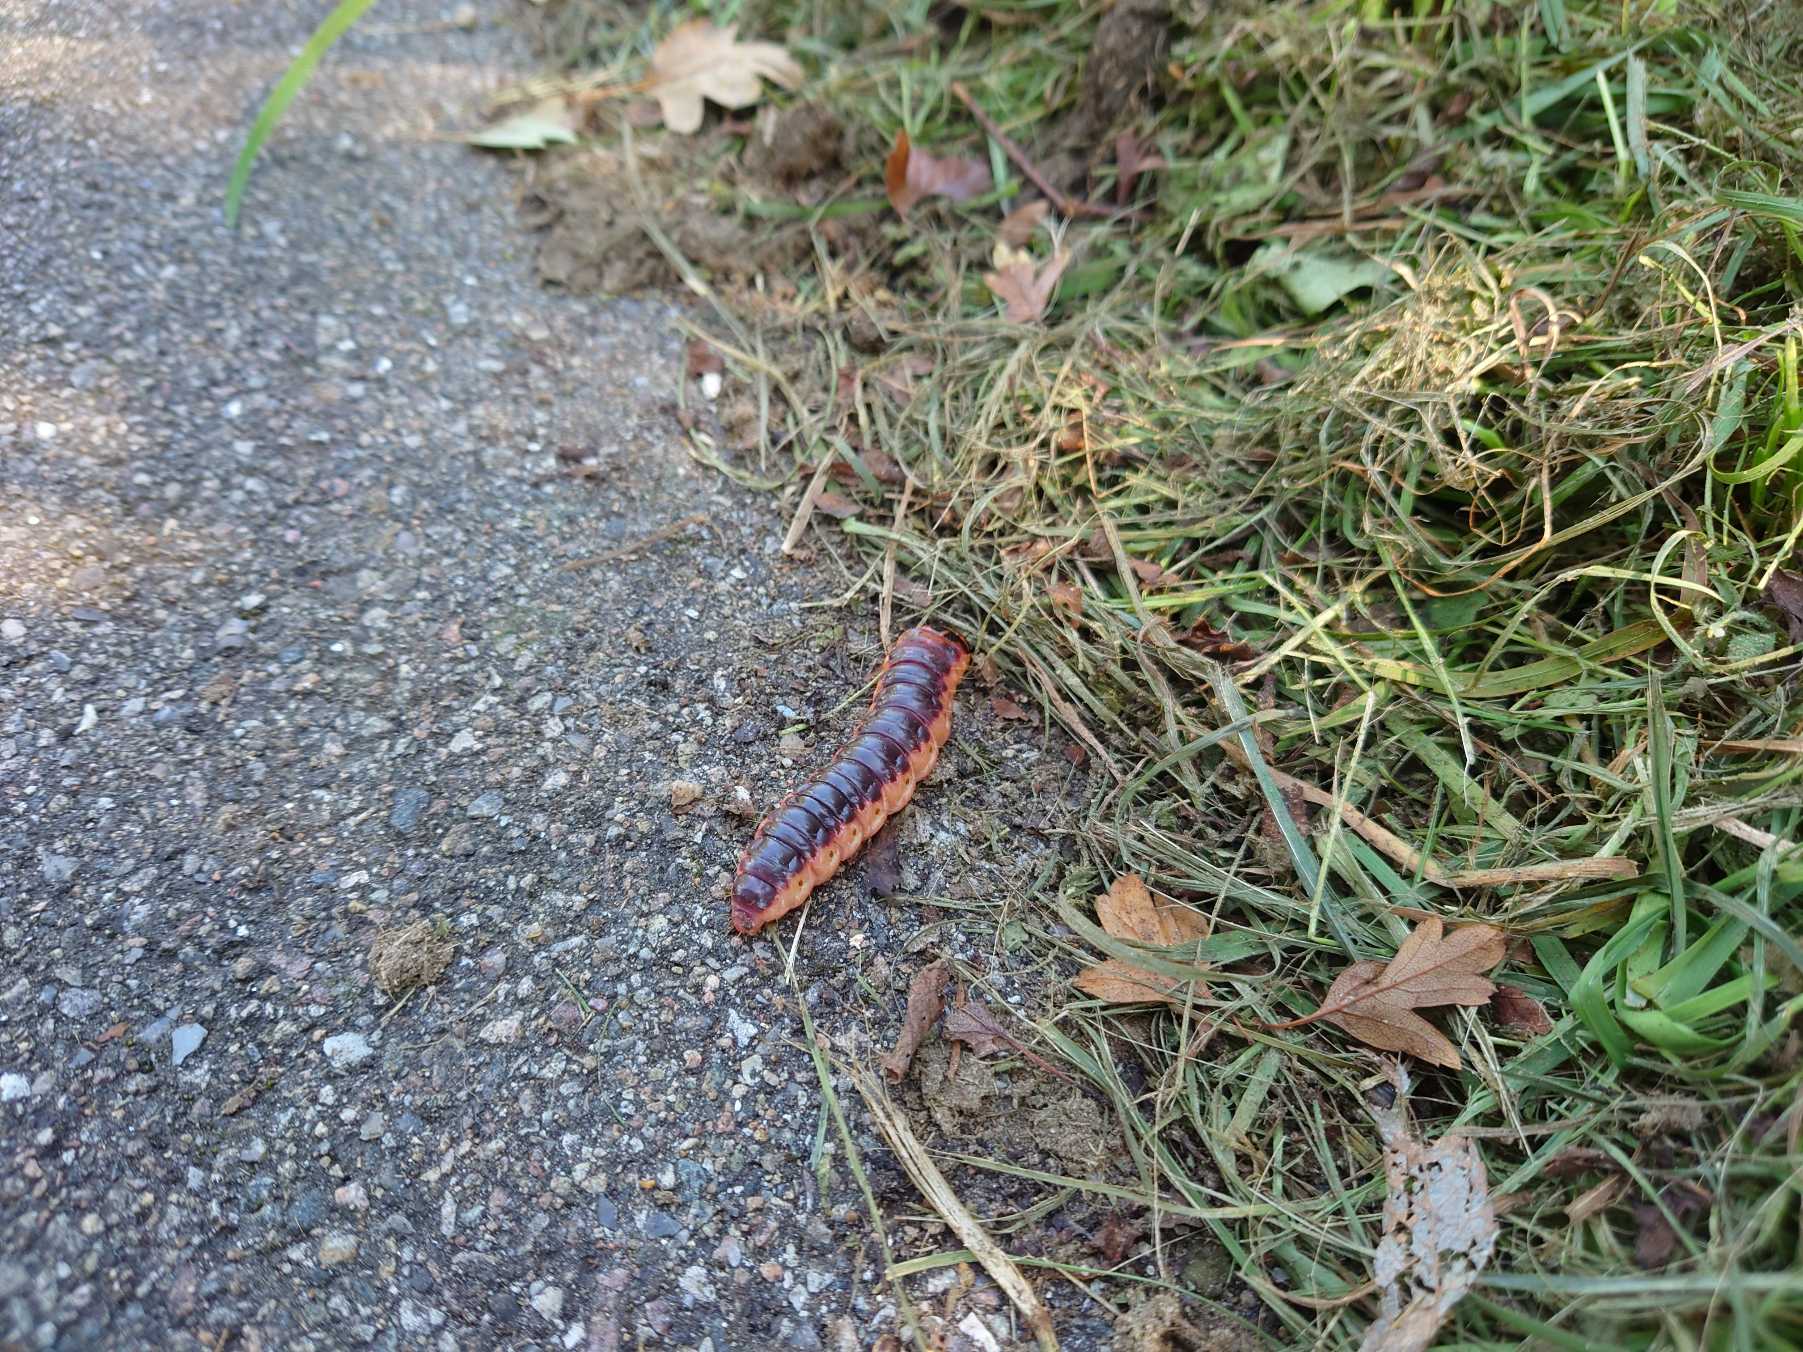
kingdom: Animalia
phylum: Arthropoda
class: Insecta
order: Lepidoptera
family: Cossidae
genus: Cossus
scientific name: Cossus cossus
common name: Pileborer
